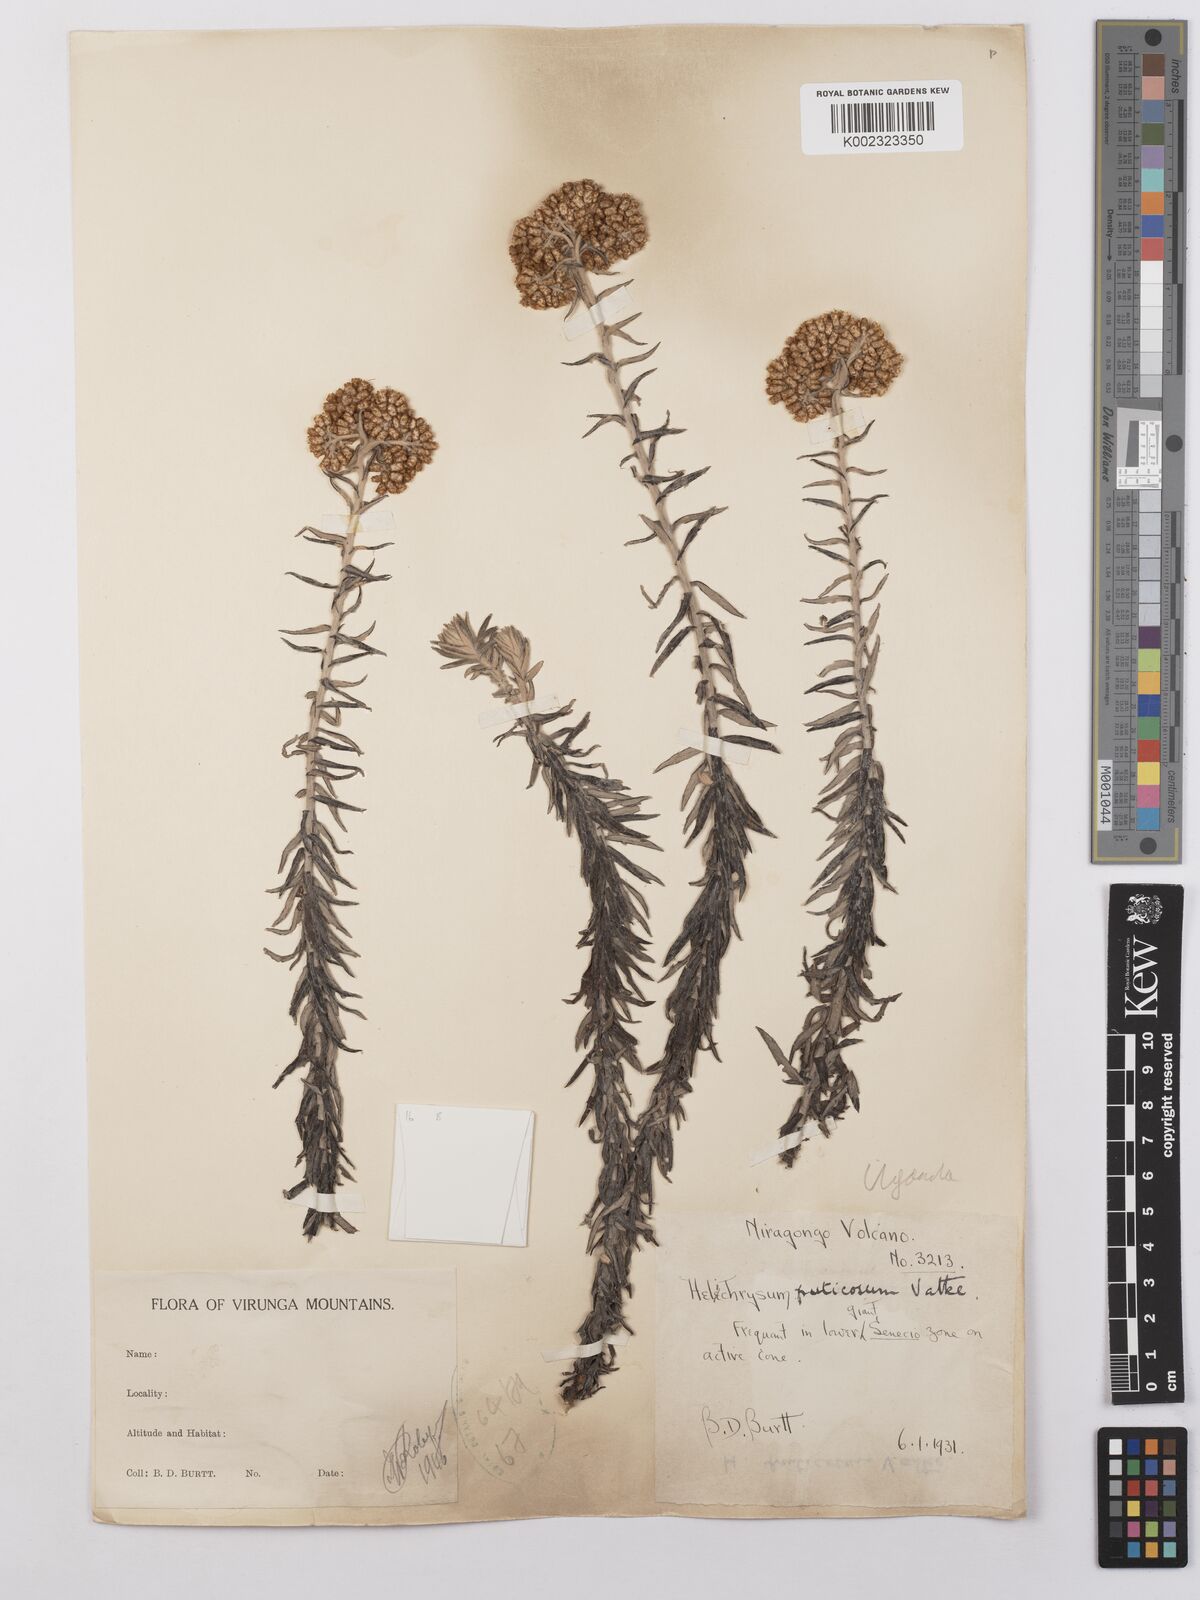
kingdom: Plantae
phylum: Tracheophyta
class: Magnoliopsida
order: Asterales
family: Asteraceae
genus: Helichrysum
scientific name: Helichrysum forskahlii
